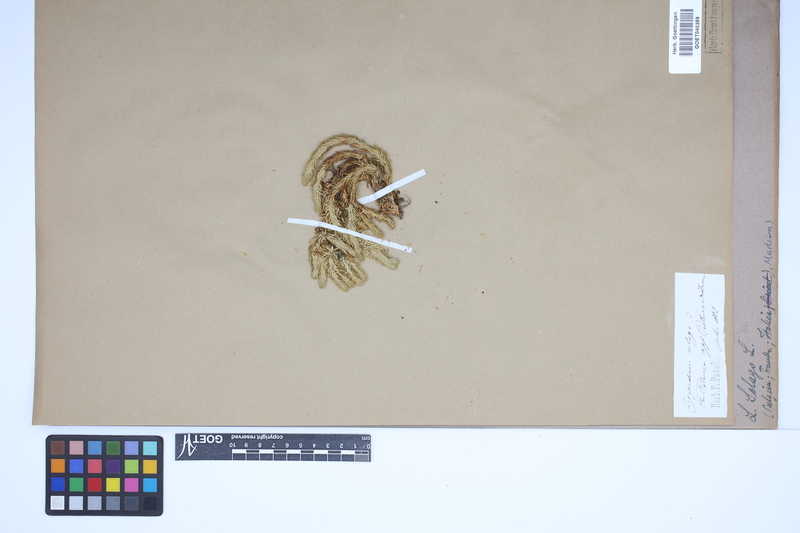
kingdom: Plantae
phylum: Tracheophyta
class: Lycopodiopsida
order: Lycopodiales
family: Lycopodiaceae
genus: Huperzia
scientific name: Huperzia selago
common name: Northern firmoss
